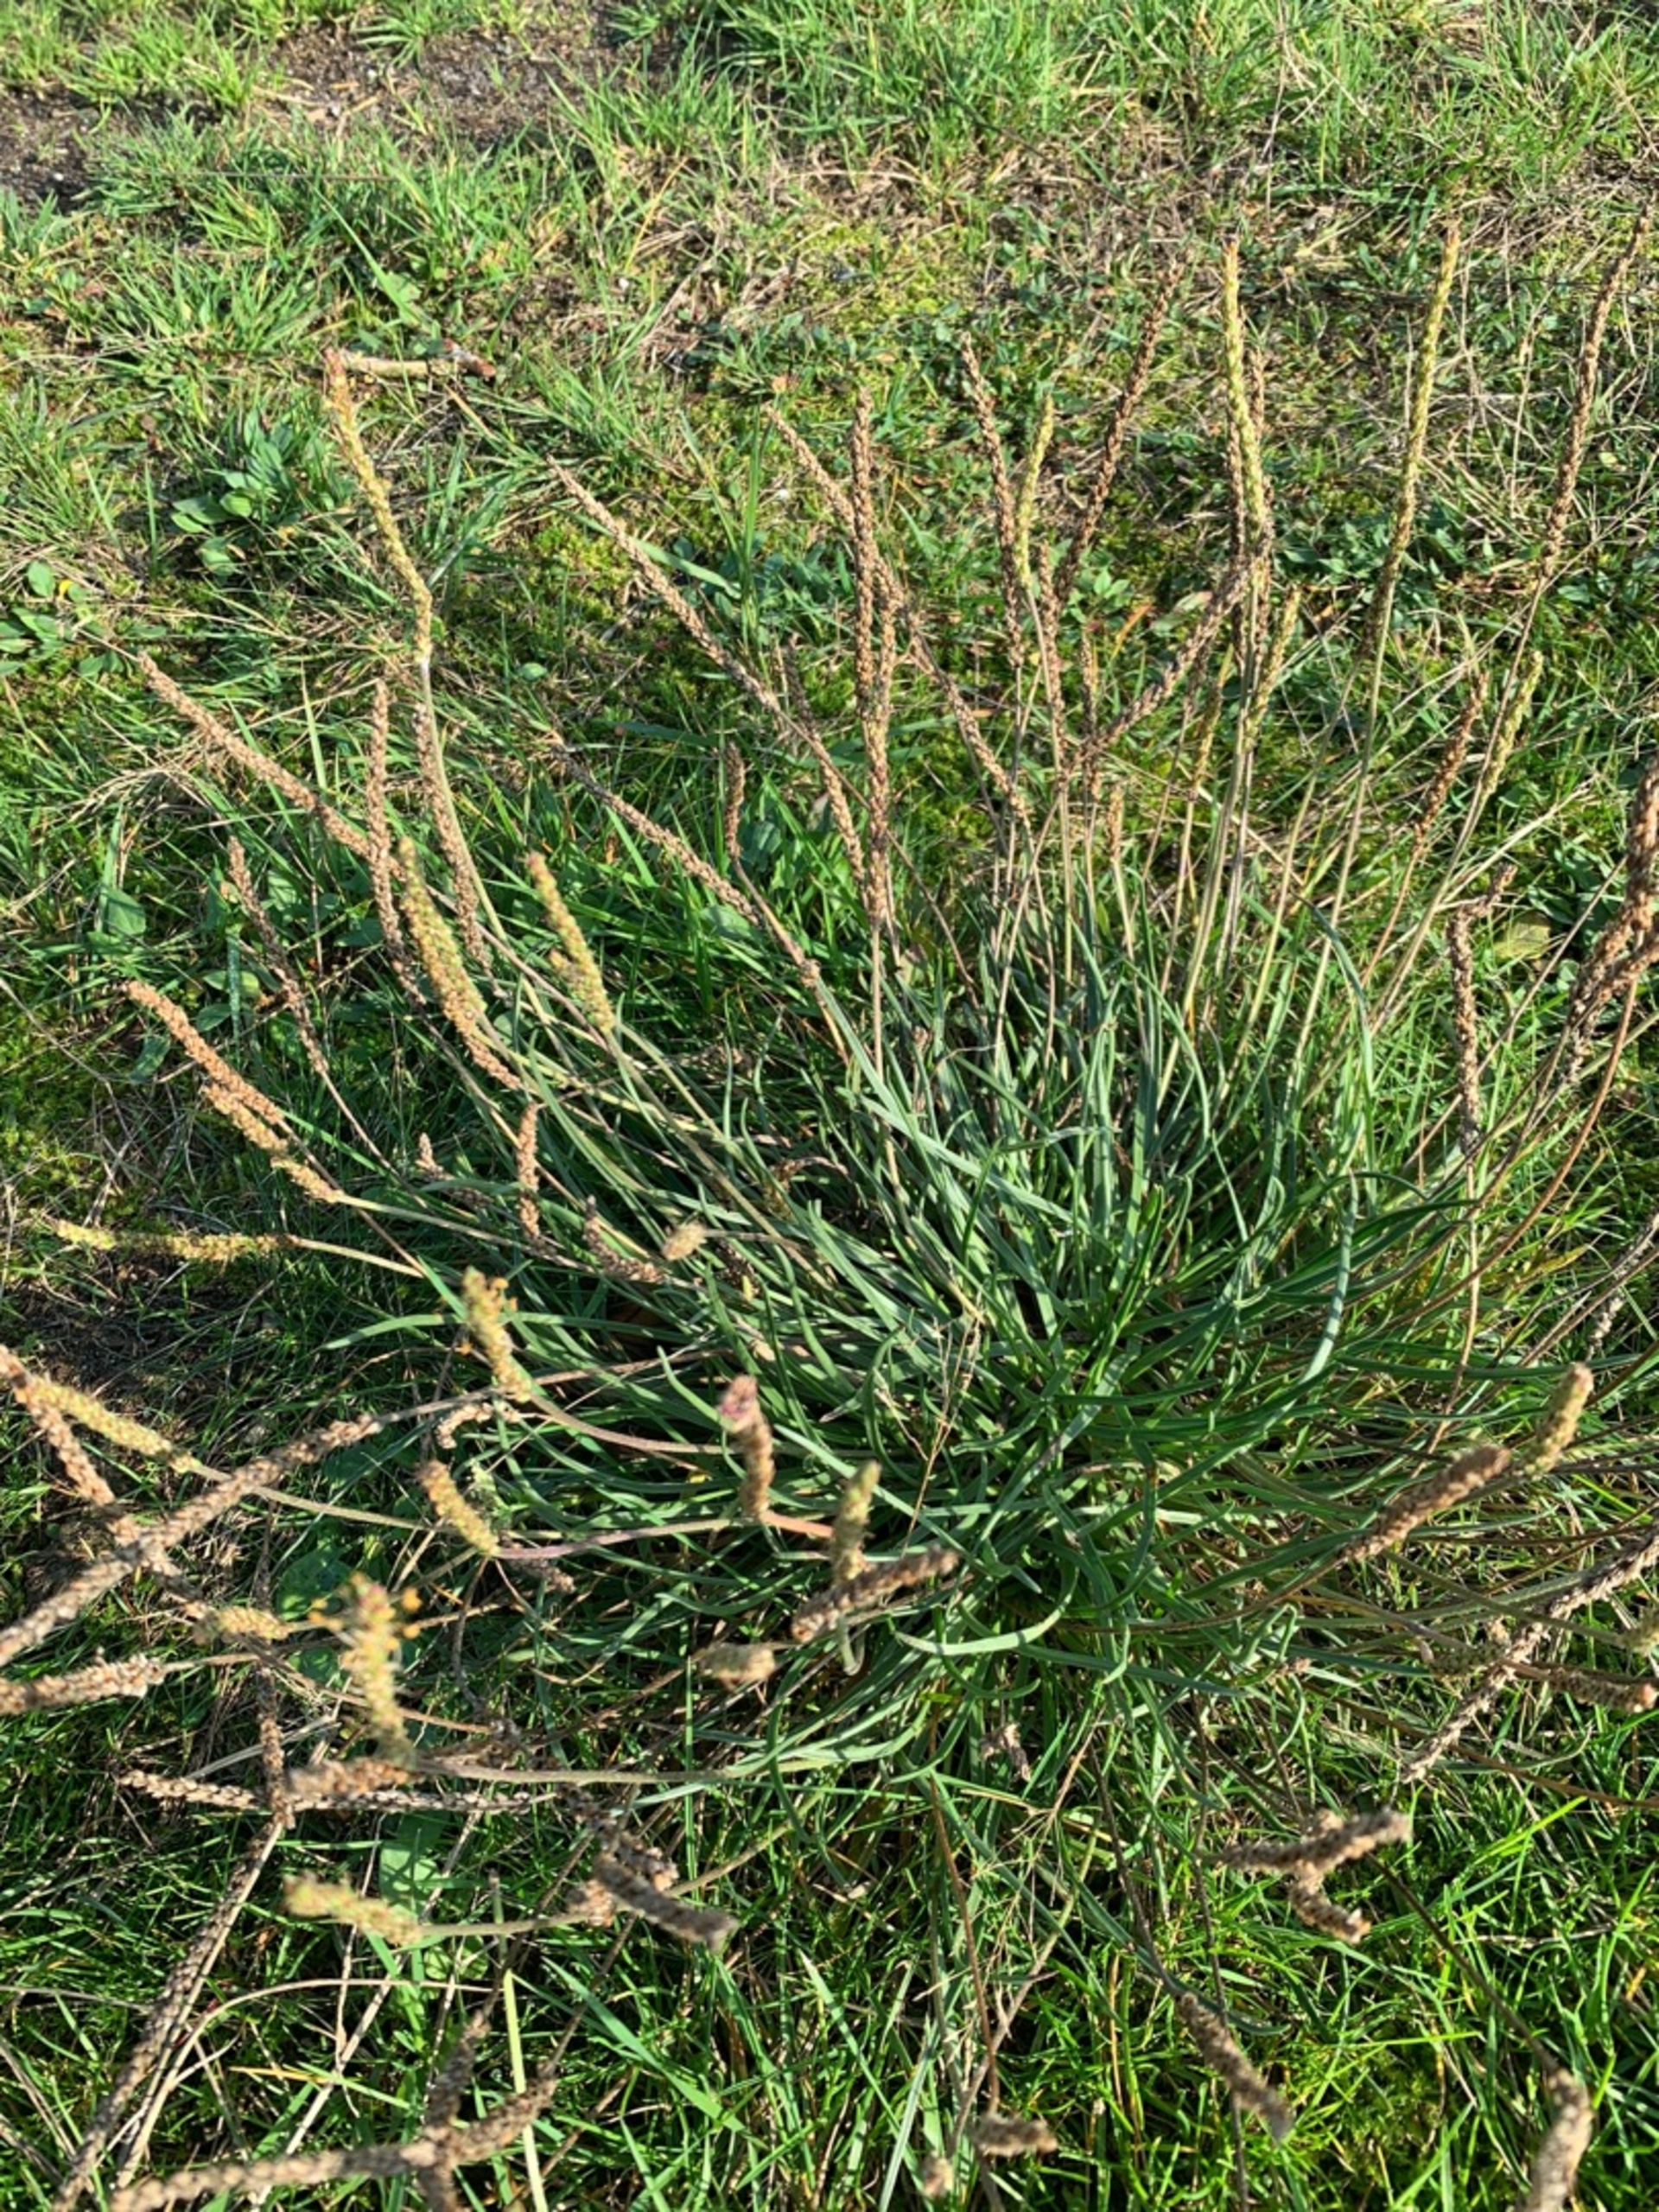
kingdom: Plantae
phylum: Tracheophyta
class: Magnoliopsida
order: Lamiales
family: Plantaginaceae
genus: Plantago
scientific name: Plantago maritima
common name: Strand-vejbred
